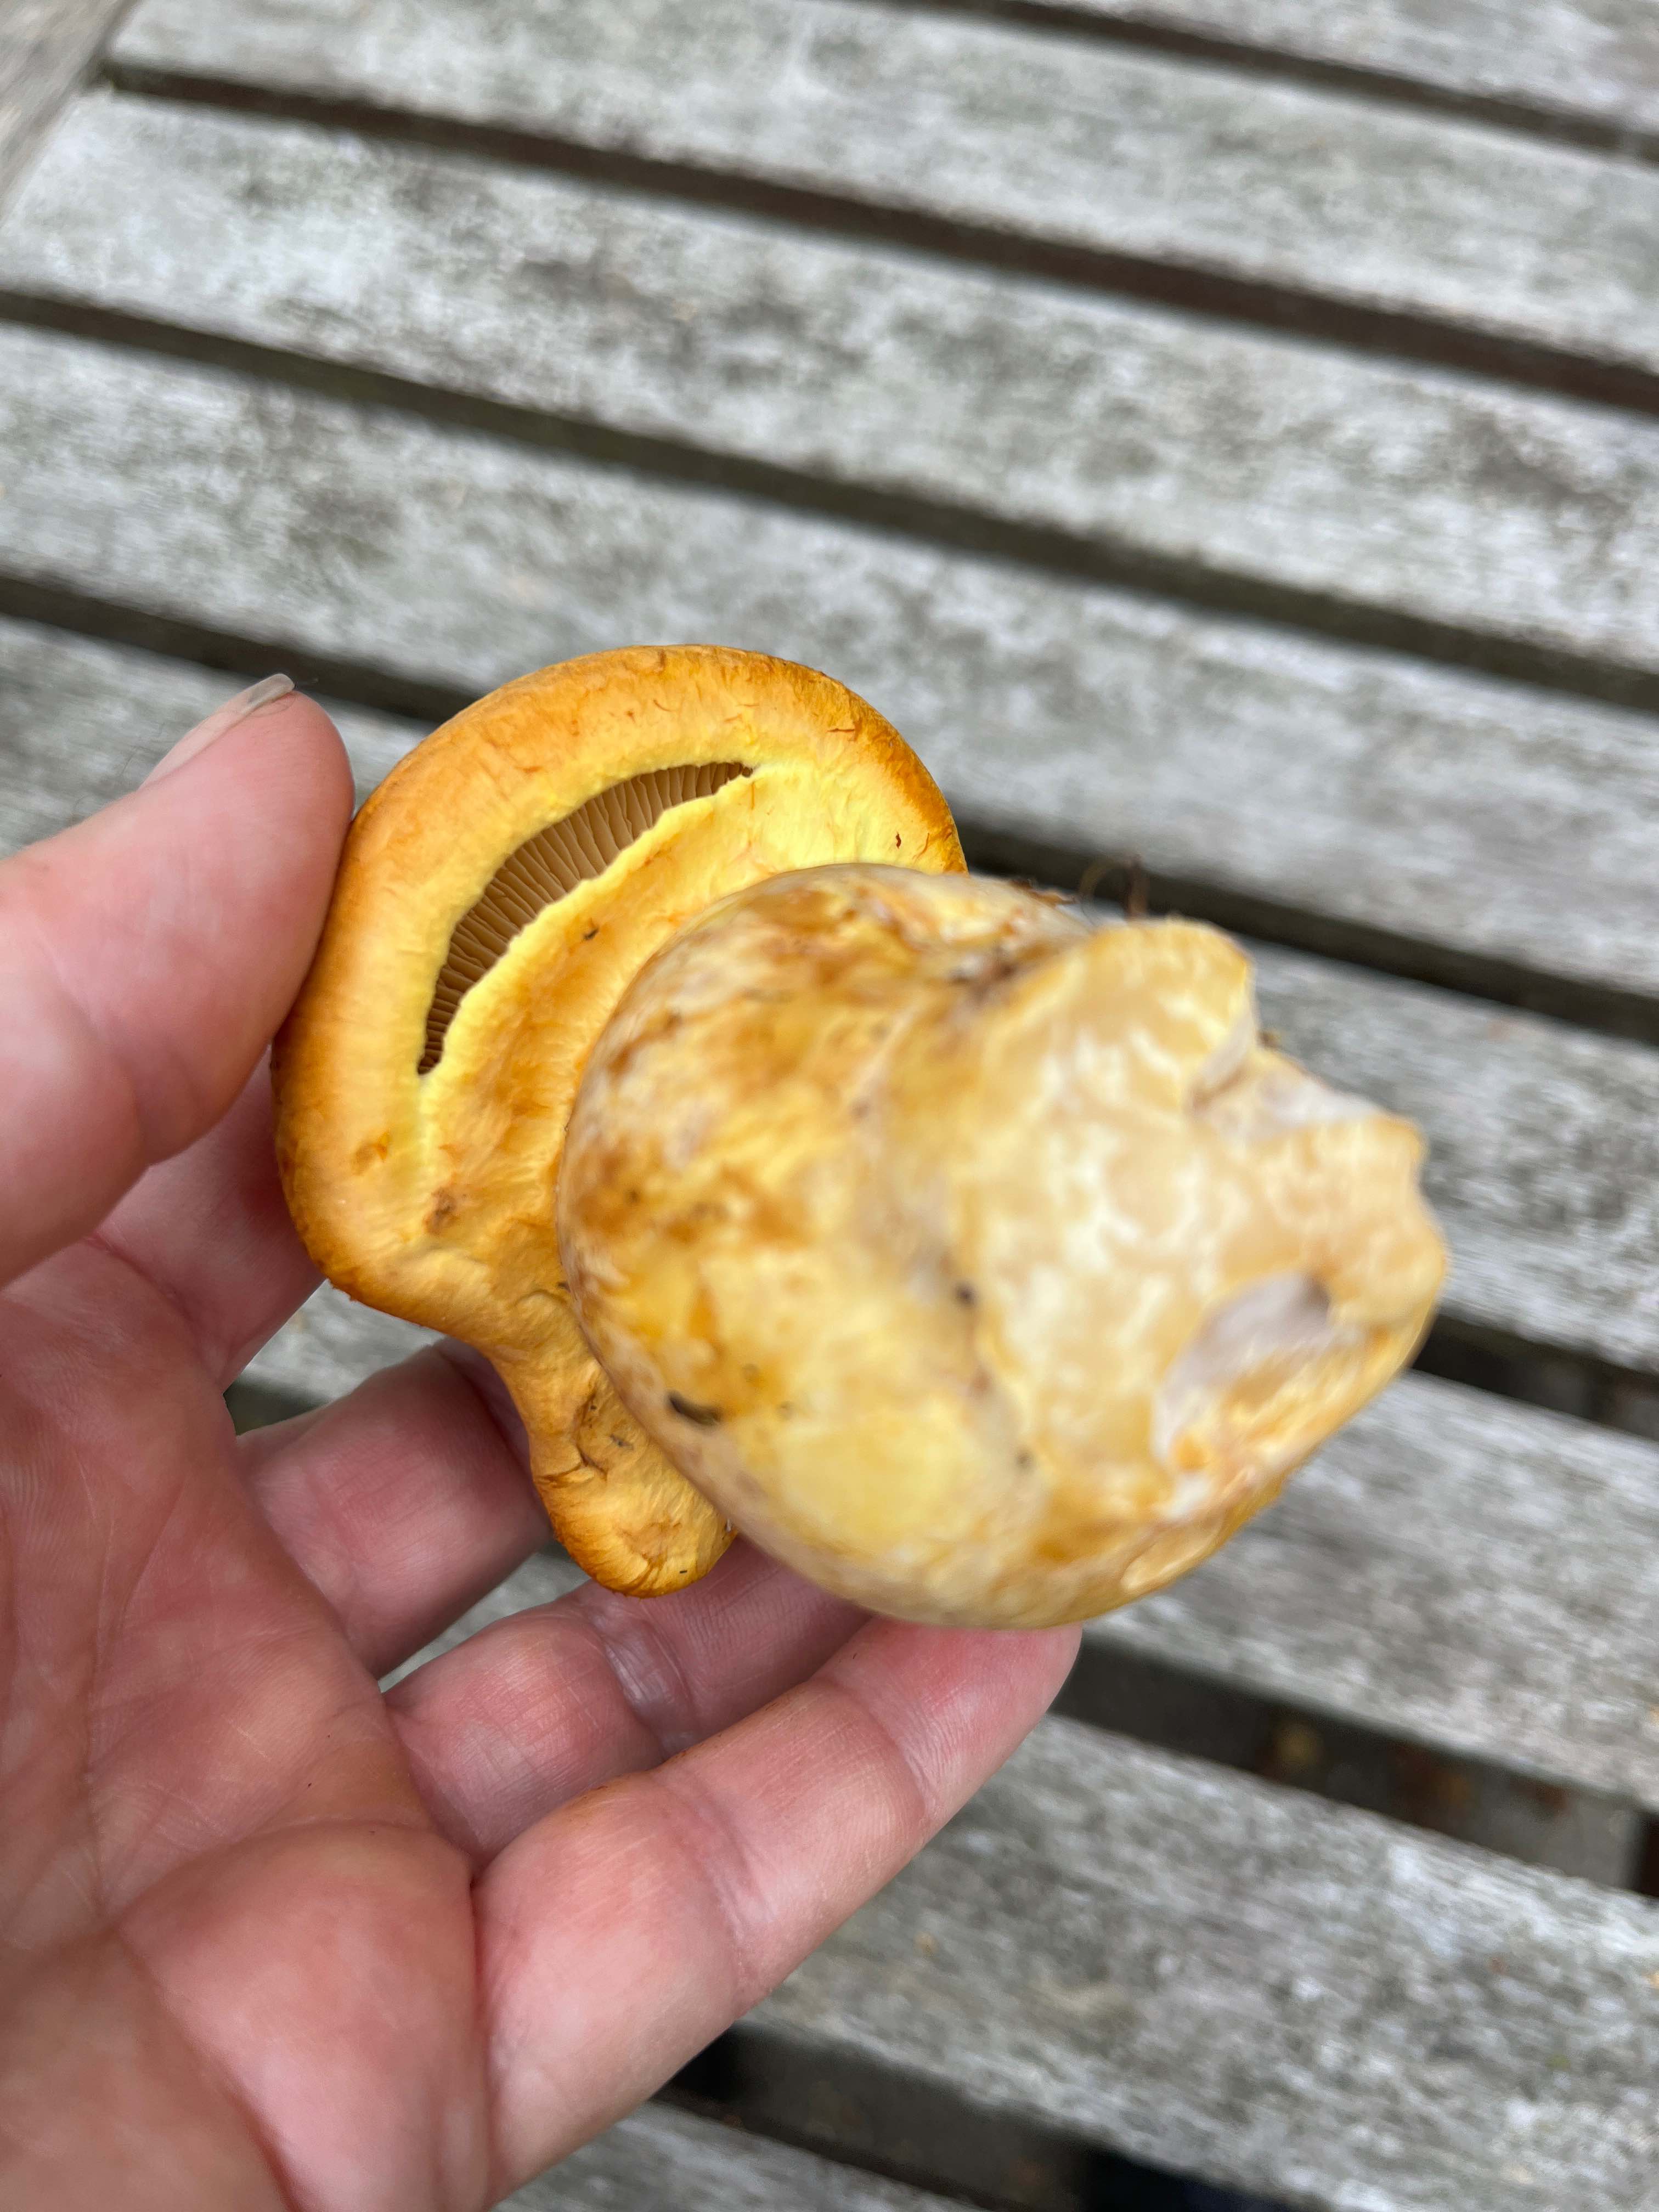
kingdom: Fungi
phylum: Basidiomycota
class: Agaricomycetes
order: Agaricales
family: Hymenogastraceae
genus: Gymnopilus
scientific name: Gymnopilus spectabilis
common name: fibret flammehat
